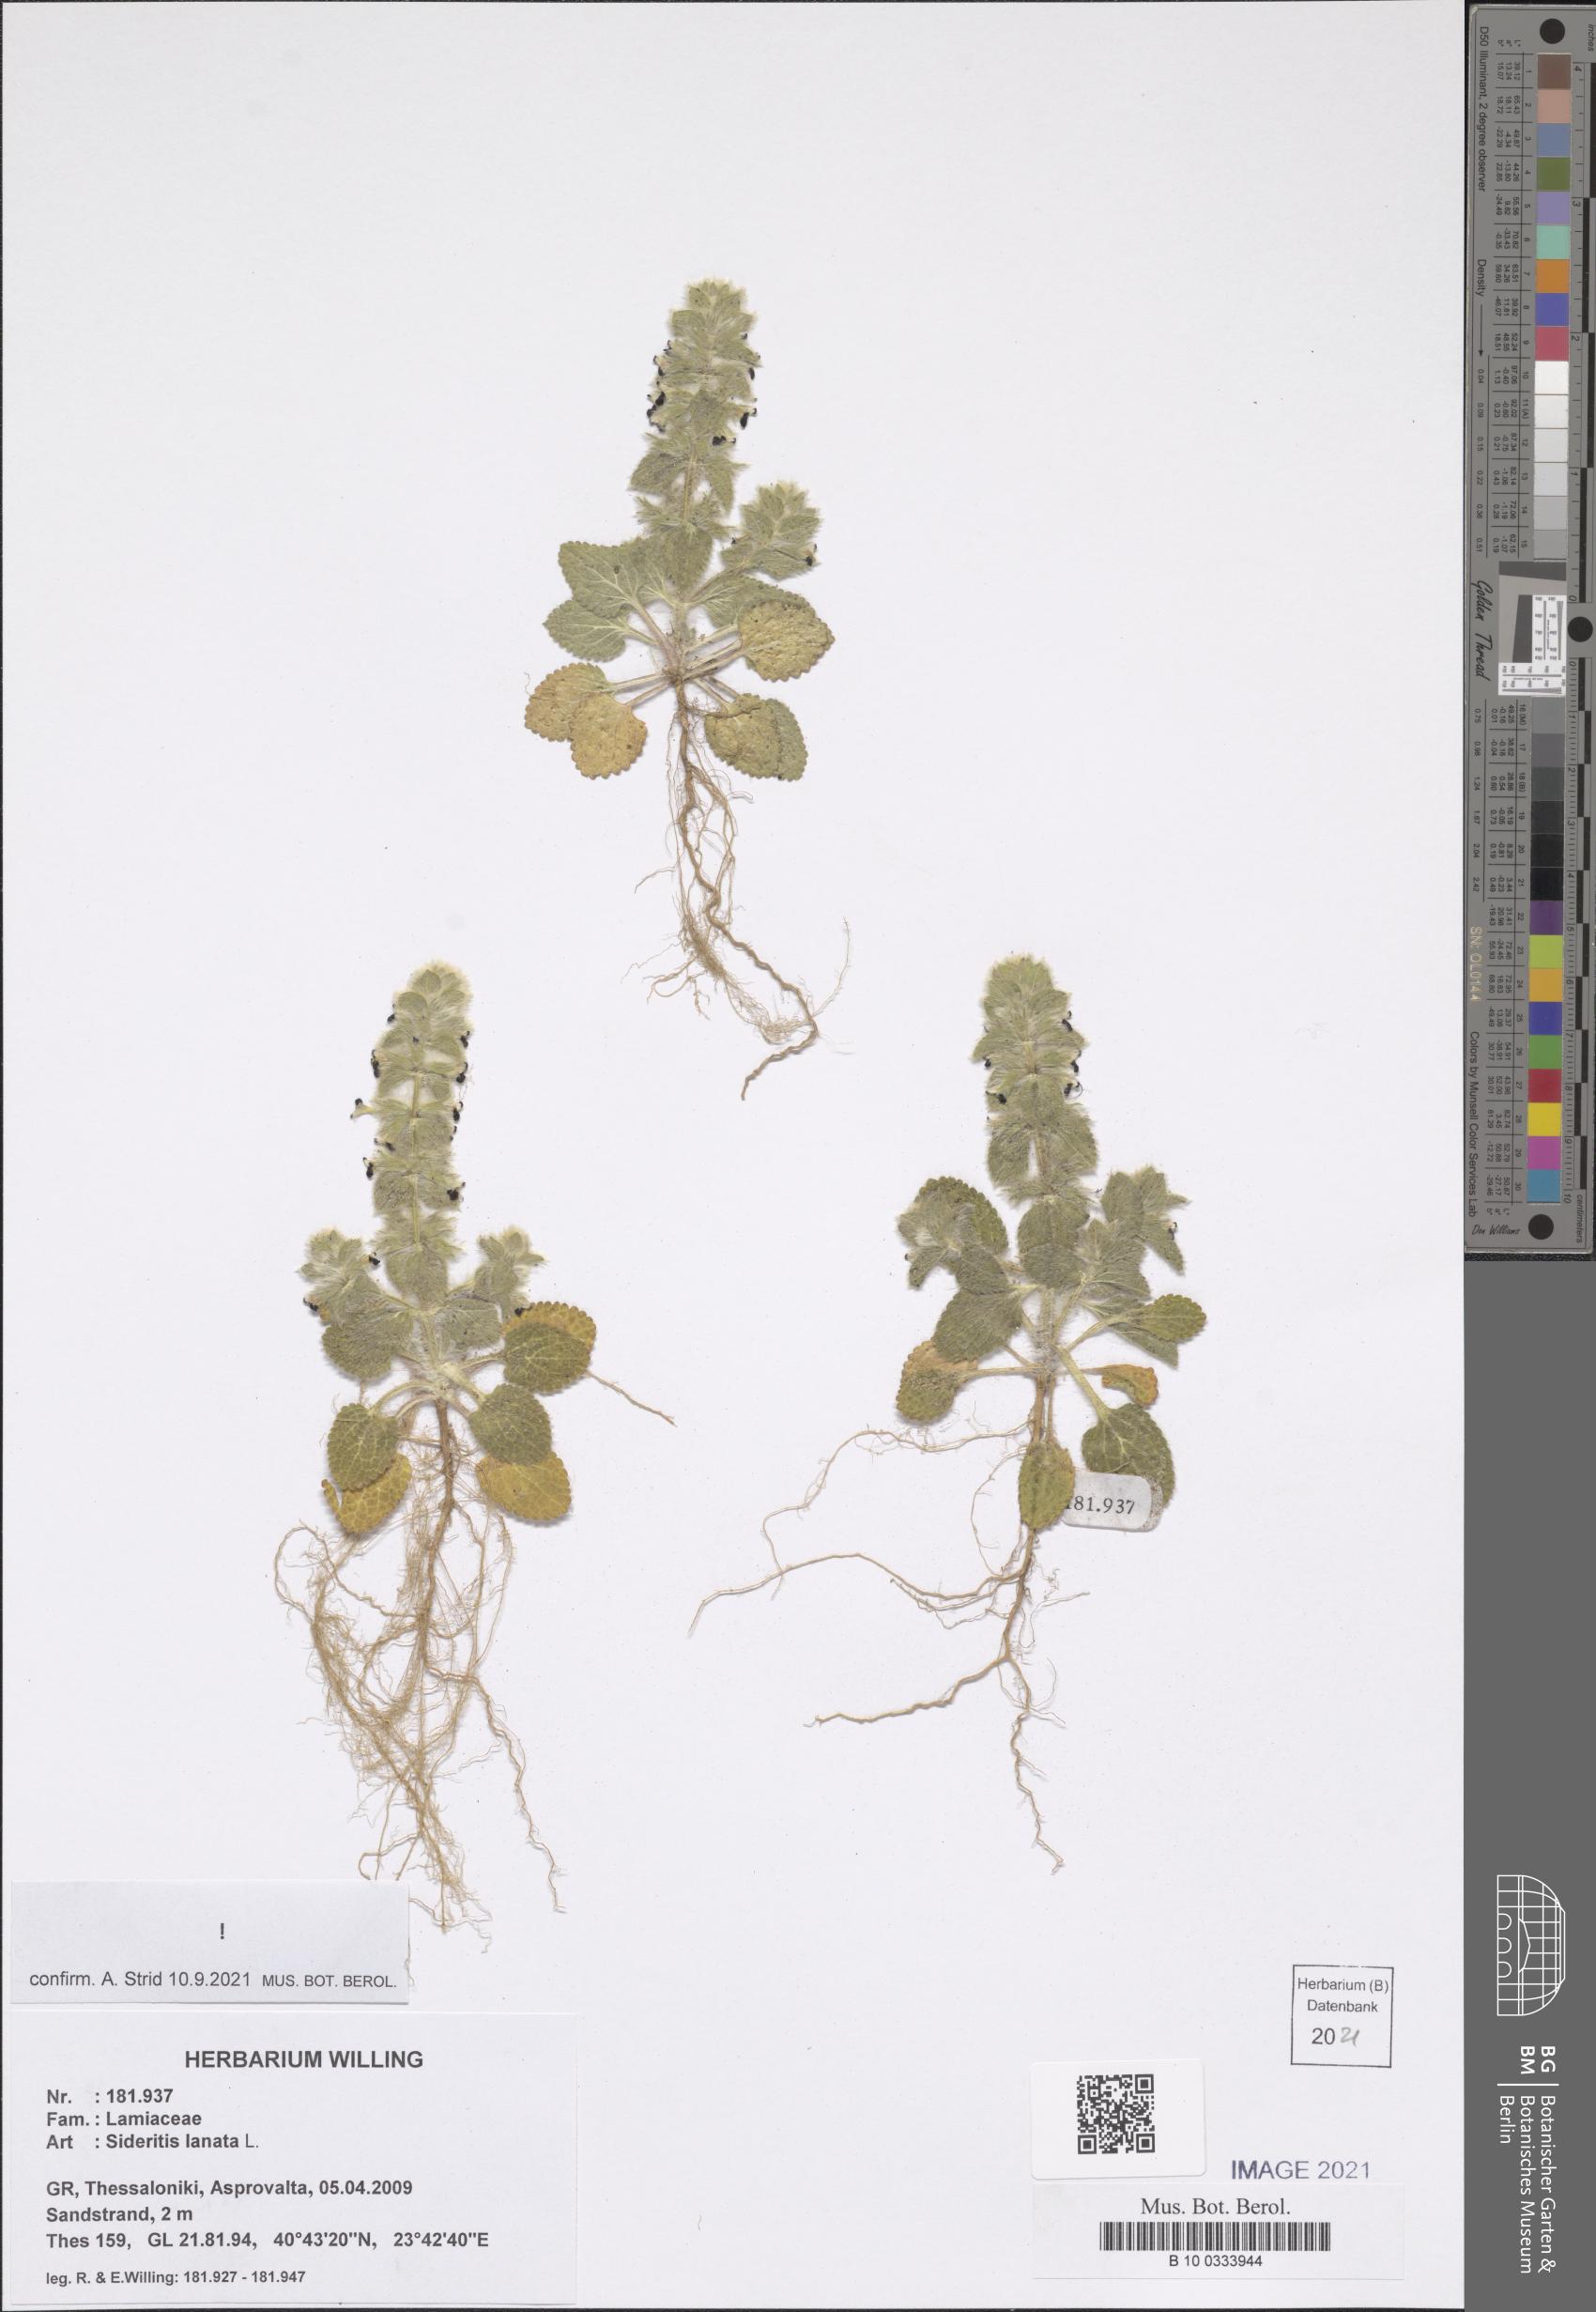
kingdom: Plantae
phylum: Tracheophyta
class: Magnoliopsida
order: Lamiales
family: Lamiaceae
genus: Sideritis
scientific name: Sideritis lanata
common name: Hairy ironwort
